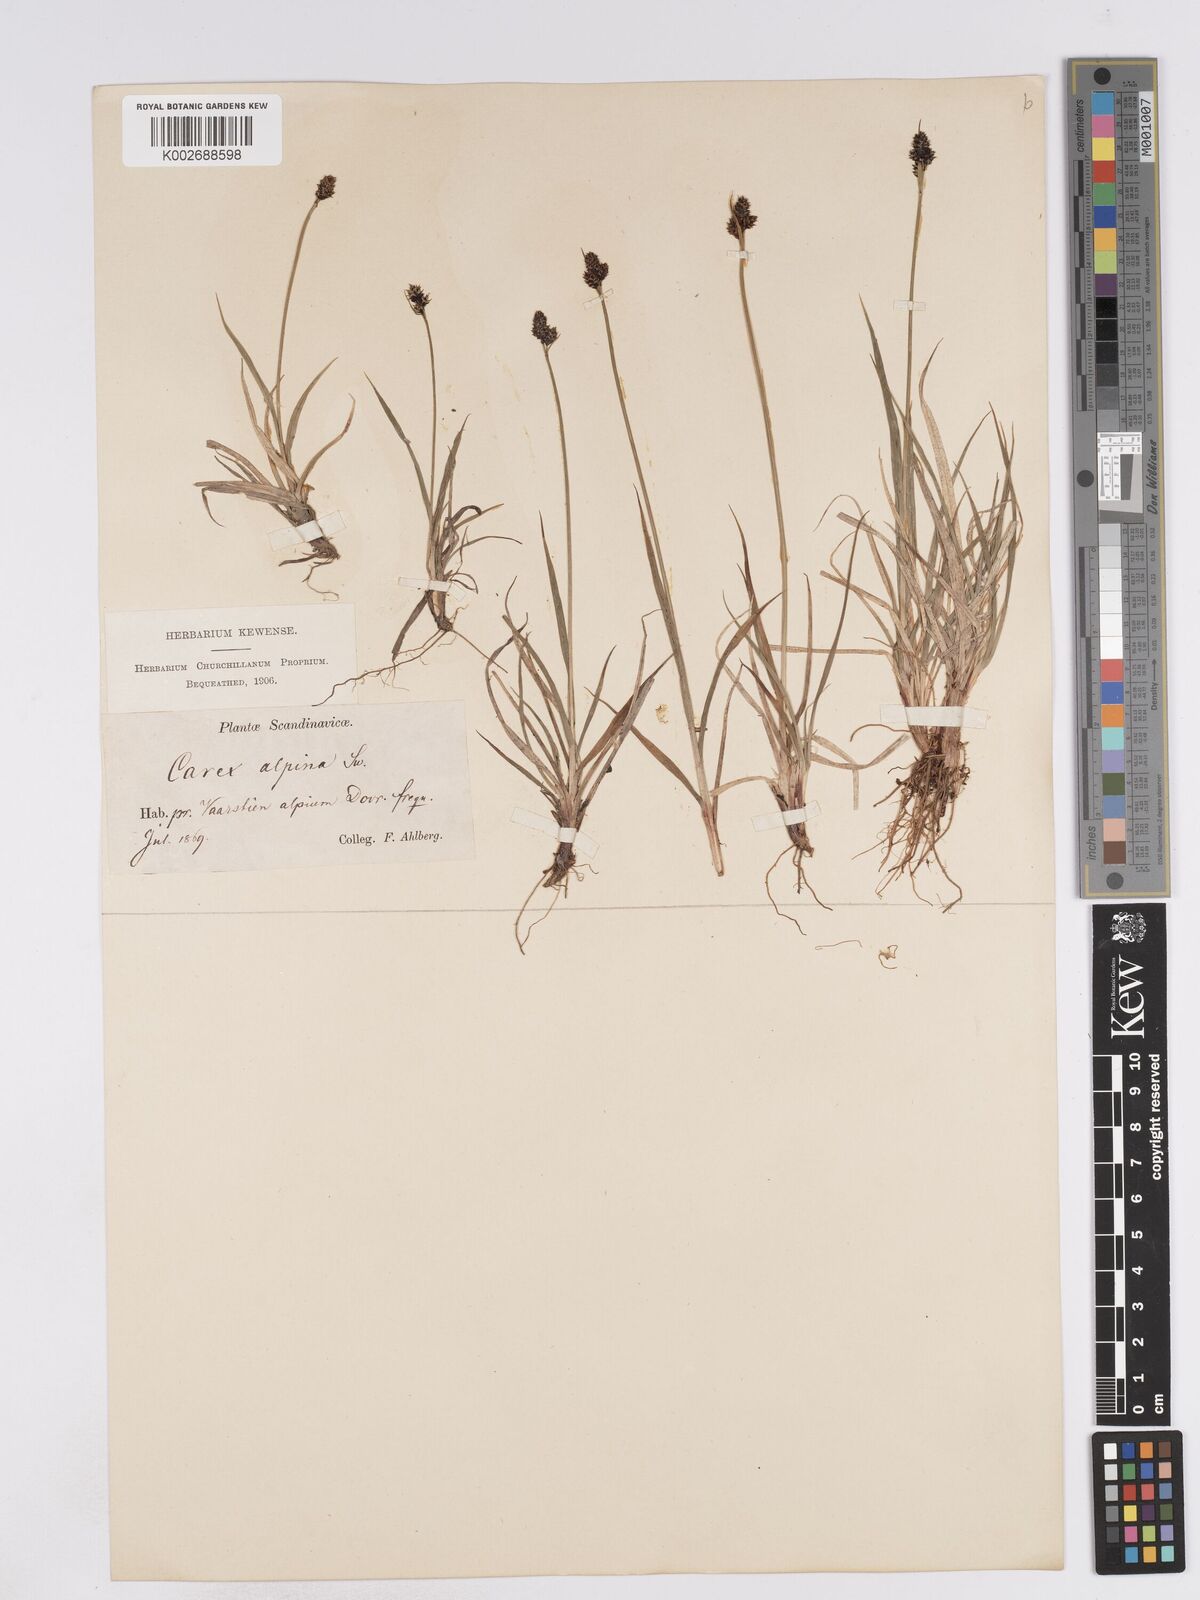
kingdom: Plantae
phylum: Tracheophyta
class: Liliopsida
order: Poales
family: Cyperaceae
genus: Carex
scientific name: Carex norvegica
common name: Close-headed alpine-sedge
